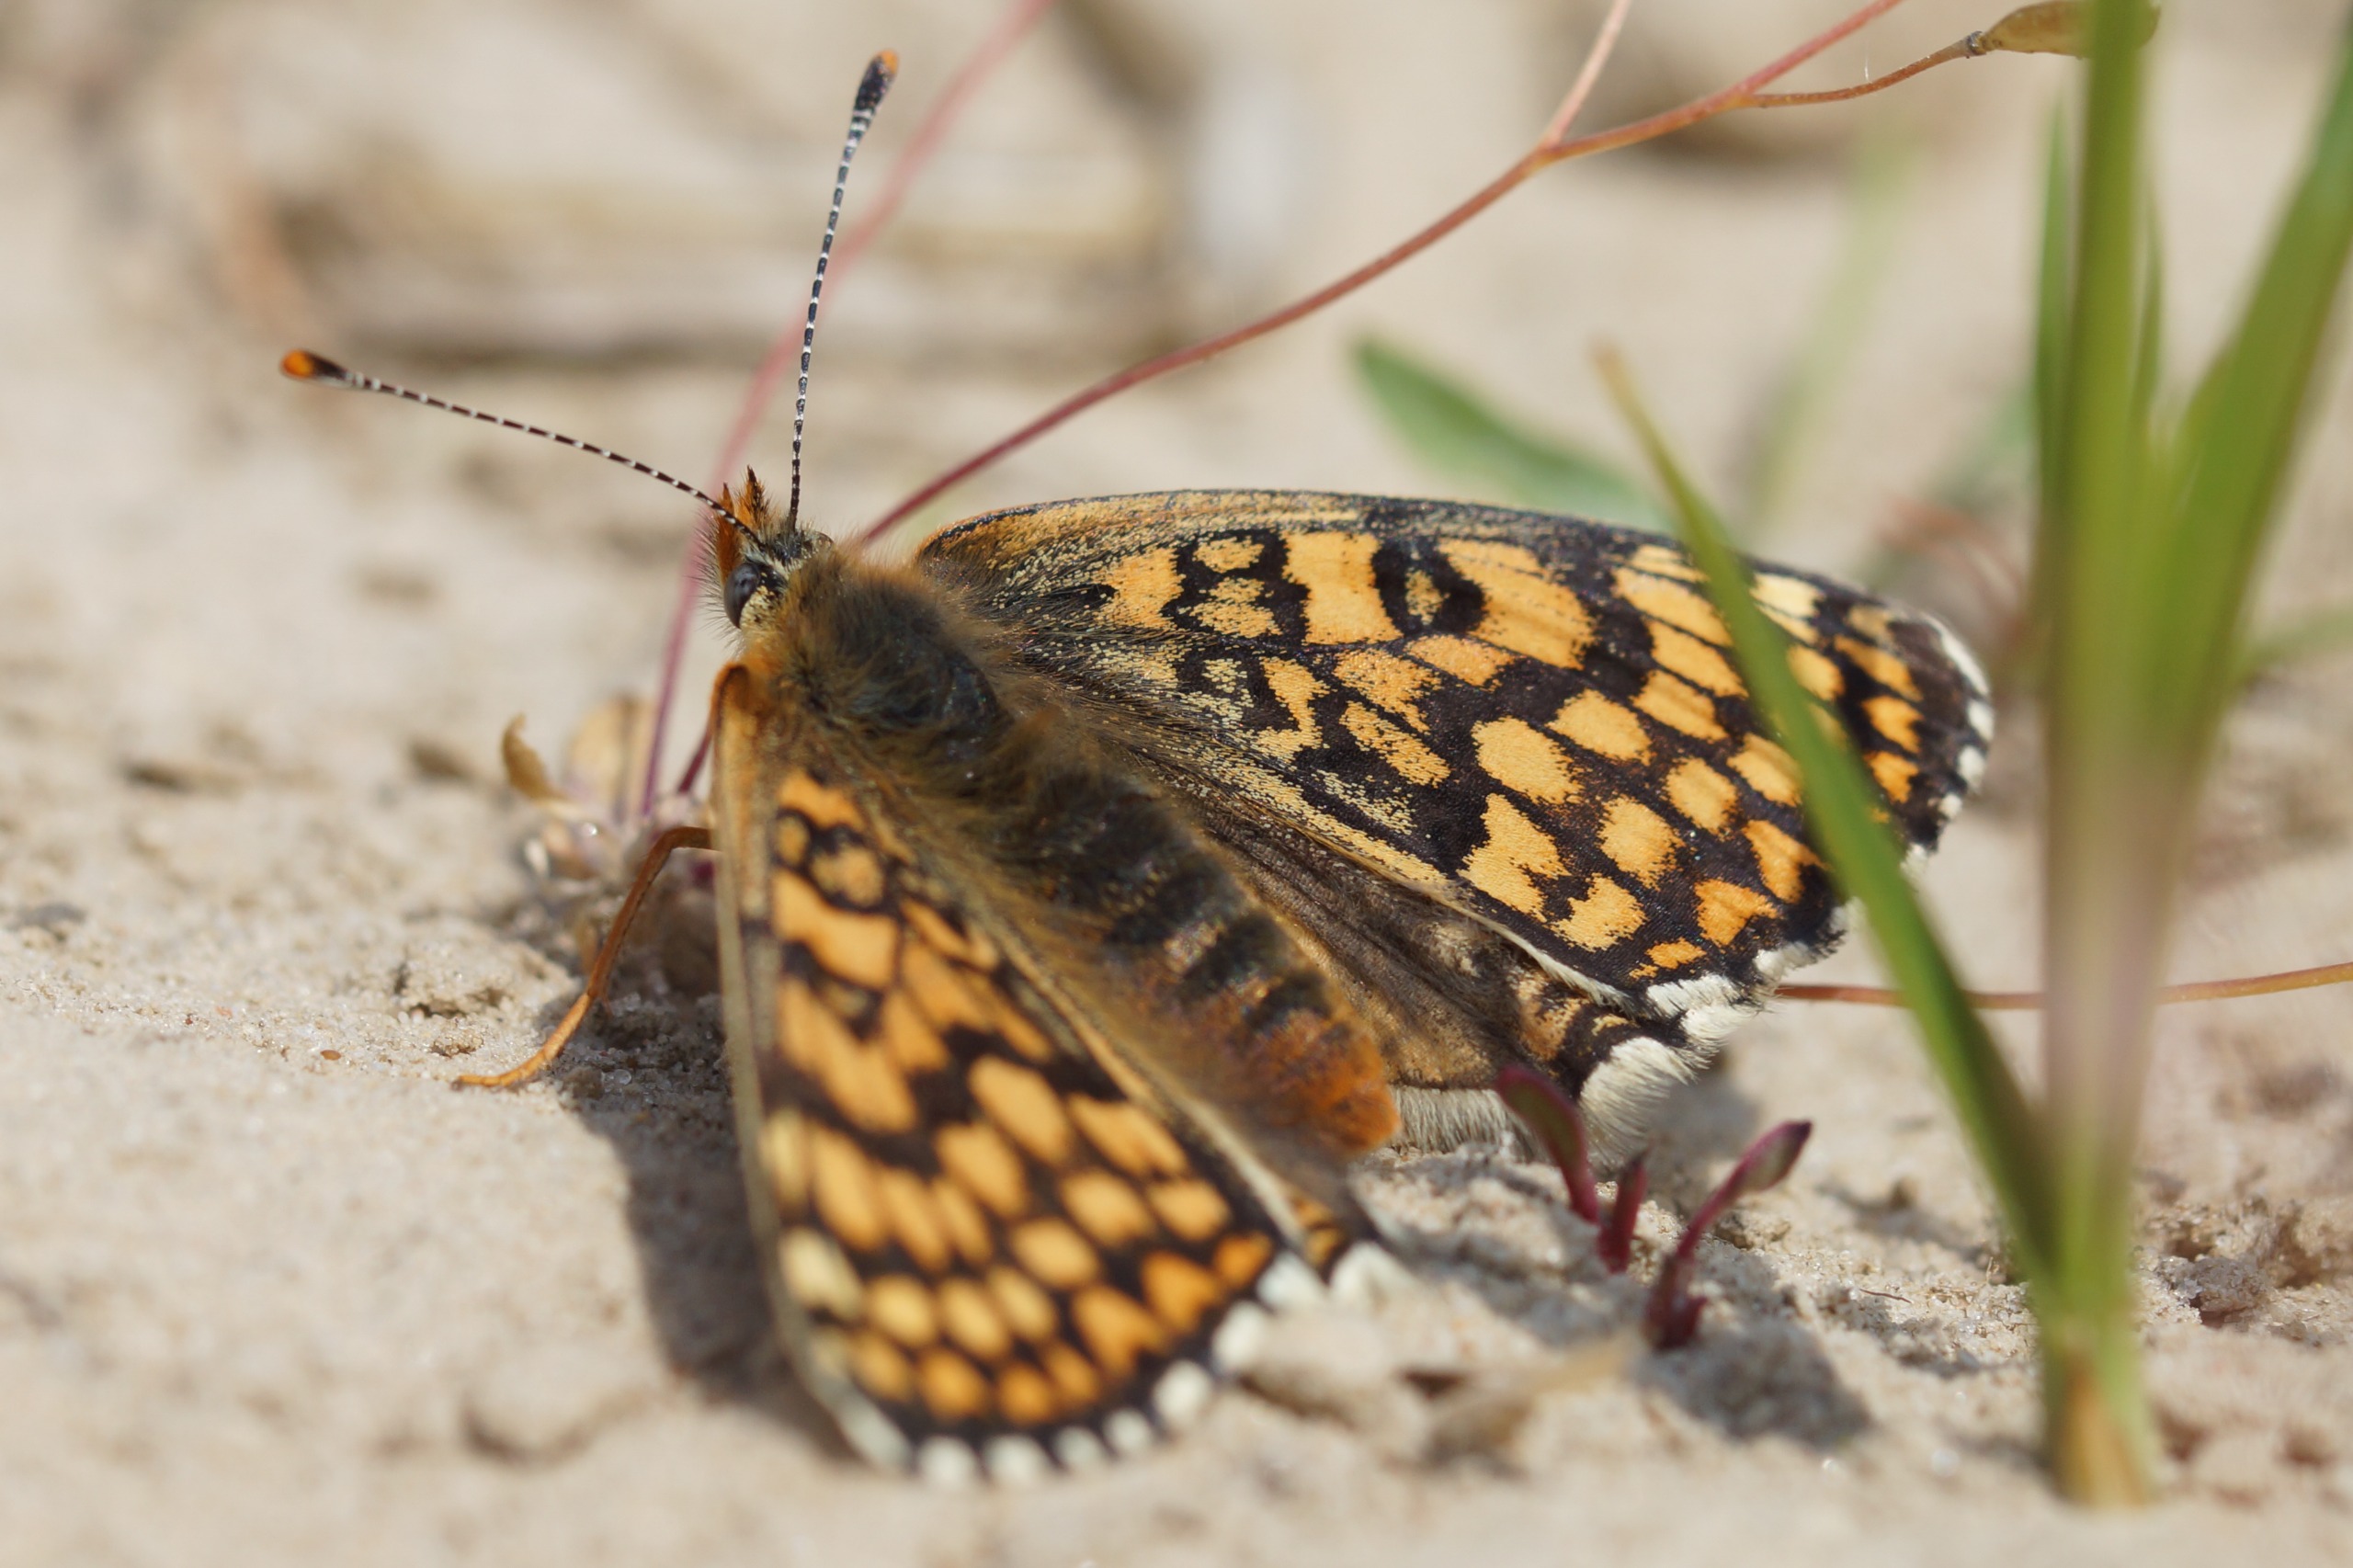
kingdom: Animalia
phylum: Arthropoda
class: Insecta
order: Lepidoptera
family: Nymphalidae
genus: Melitaea
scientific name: Melitaea cinxia
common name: Okkergul pletvinge
